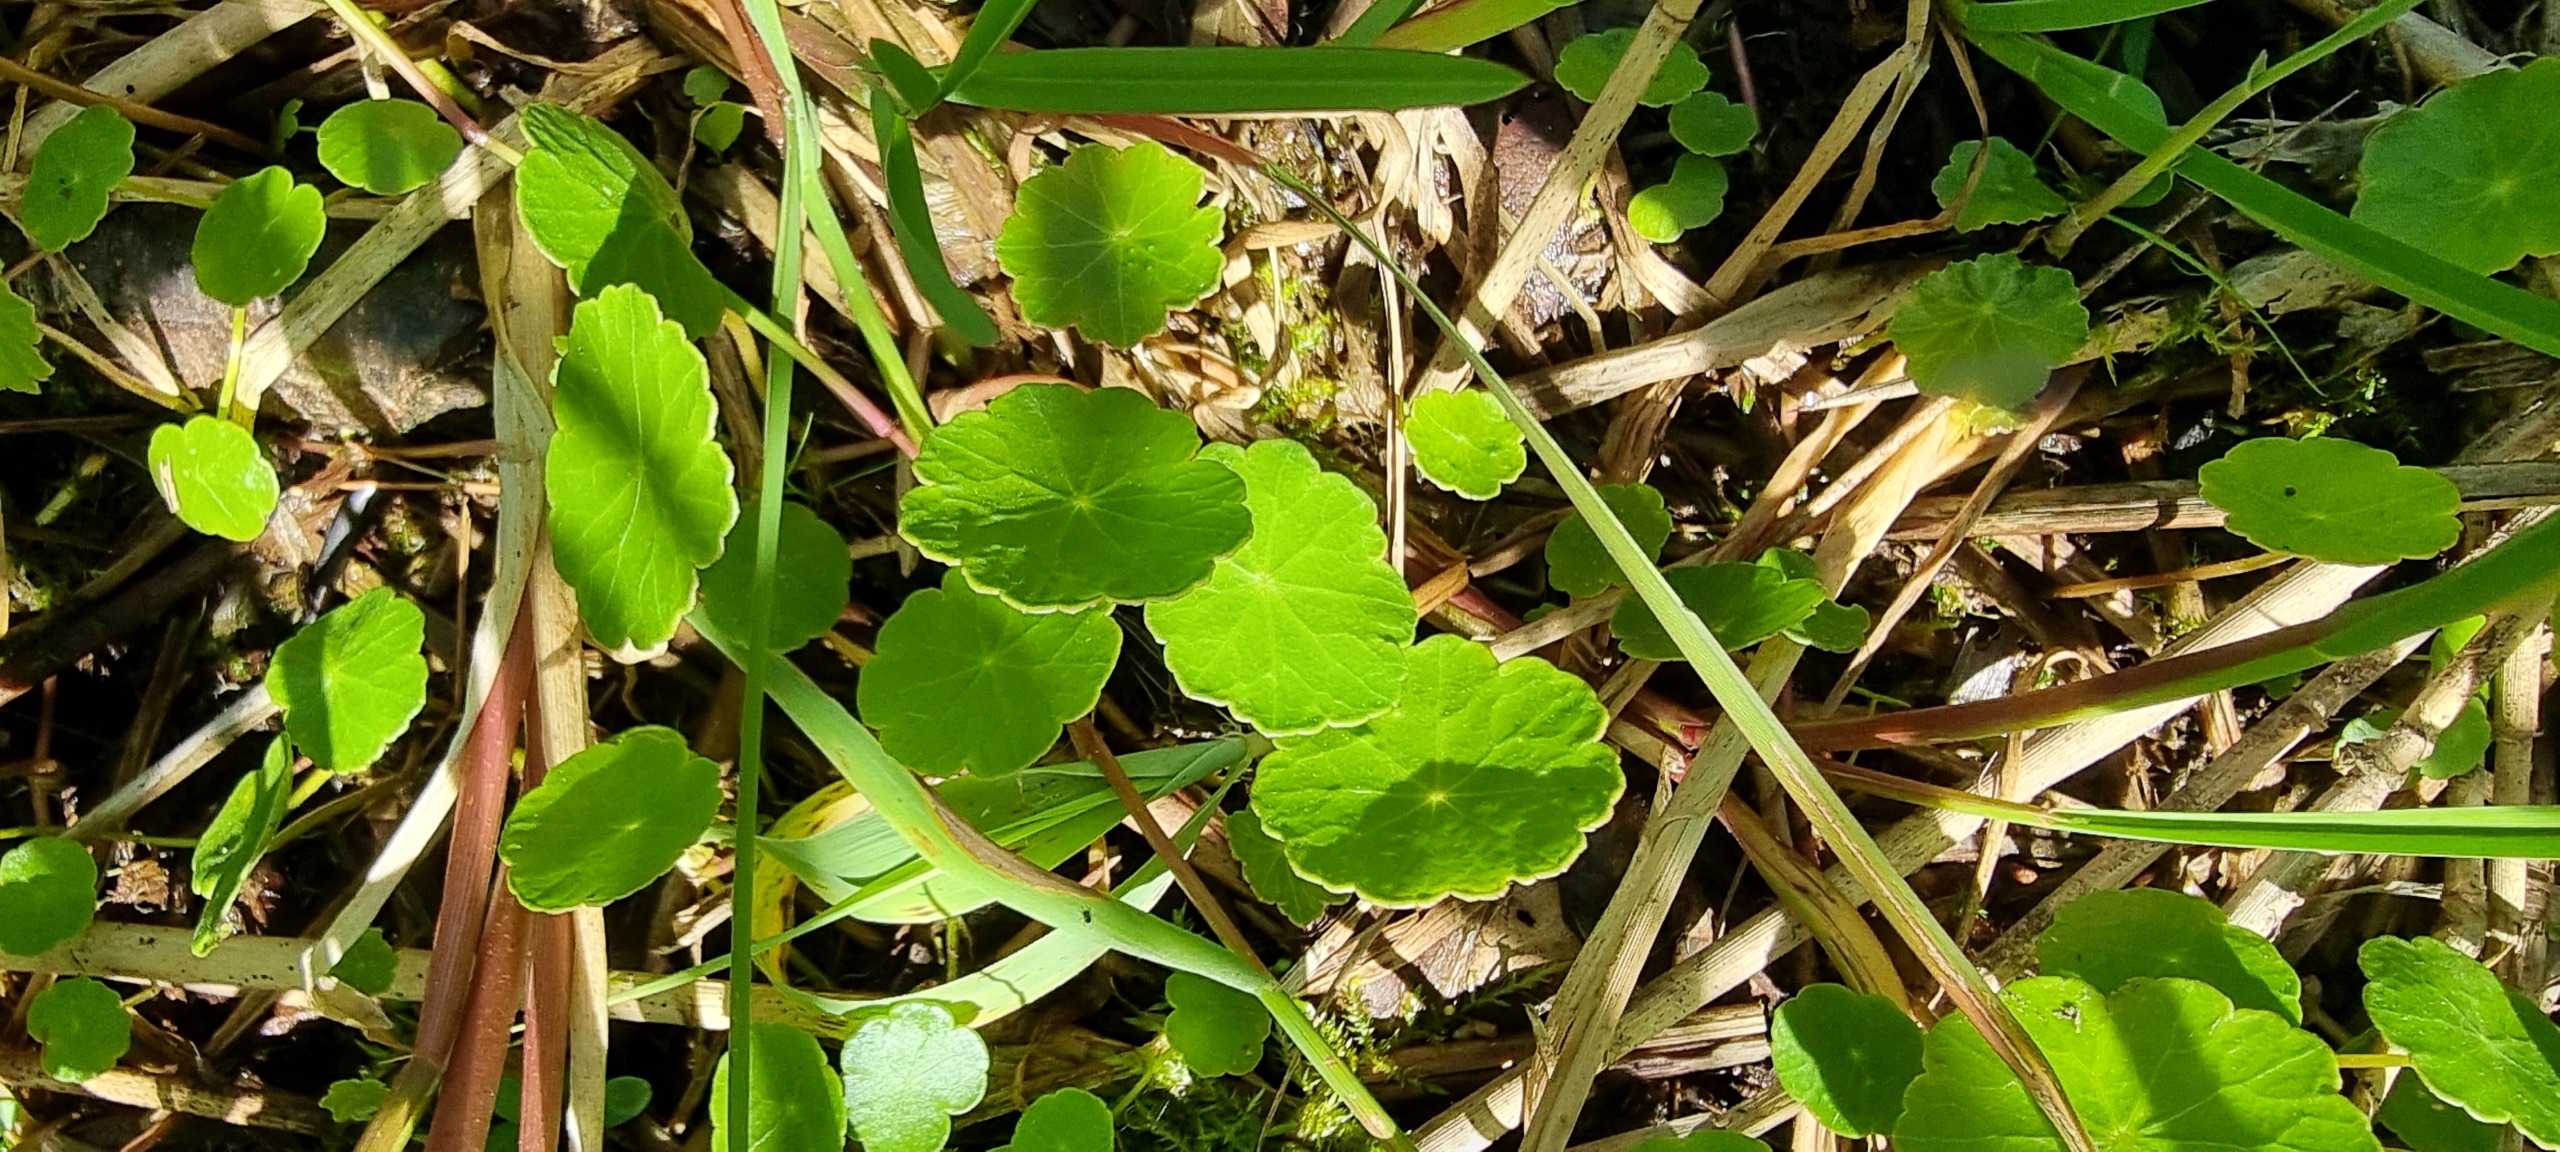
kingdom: Plantae
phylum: Tracheophyta
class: Magnoliopsida
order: Apiales
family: Araliaceae
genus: Hydrocotyle
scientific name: Hydrocotyle vulgaris
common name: Vandnavle
